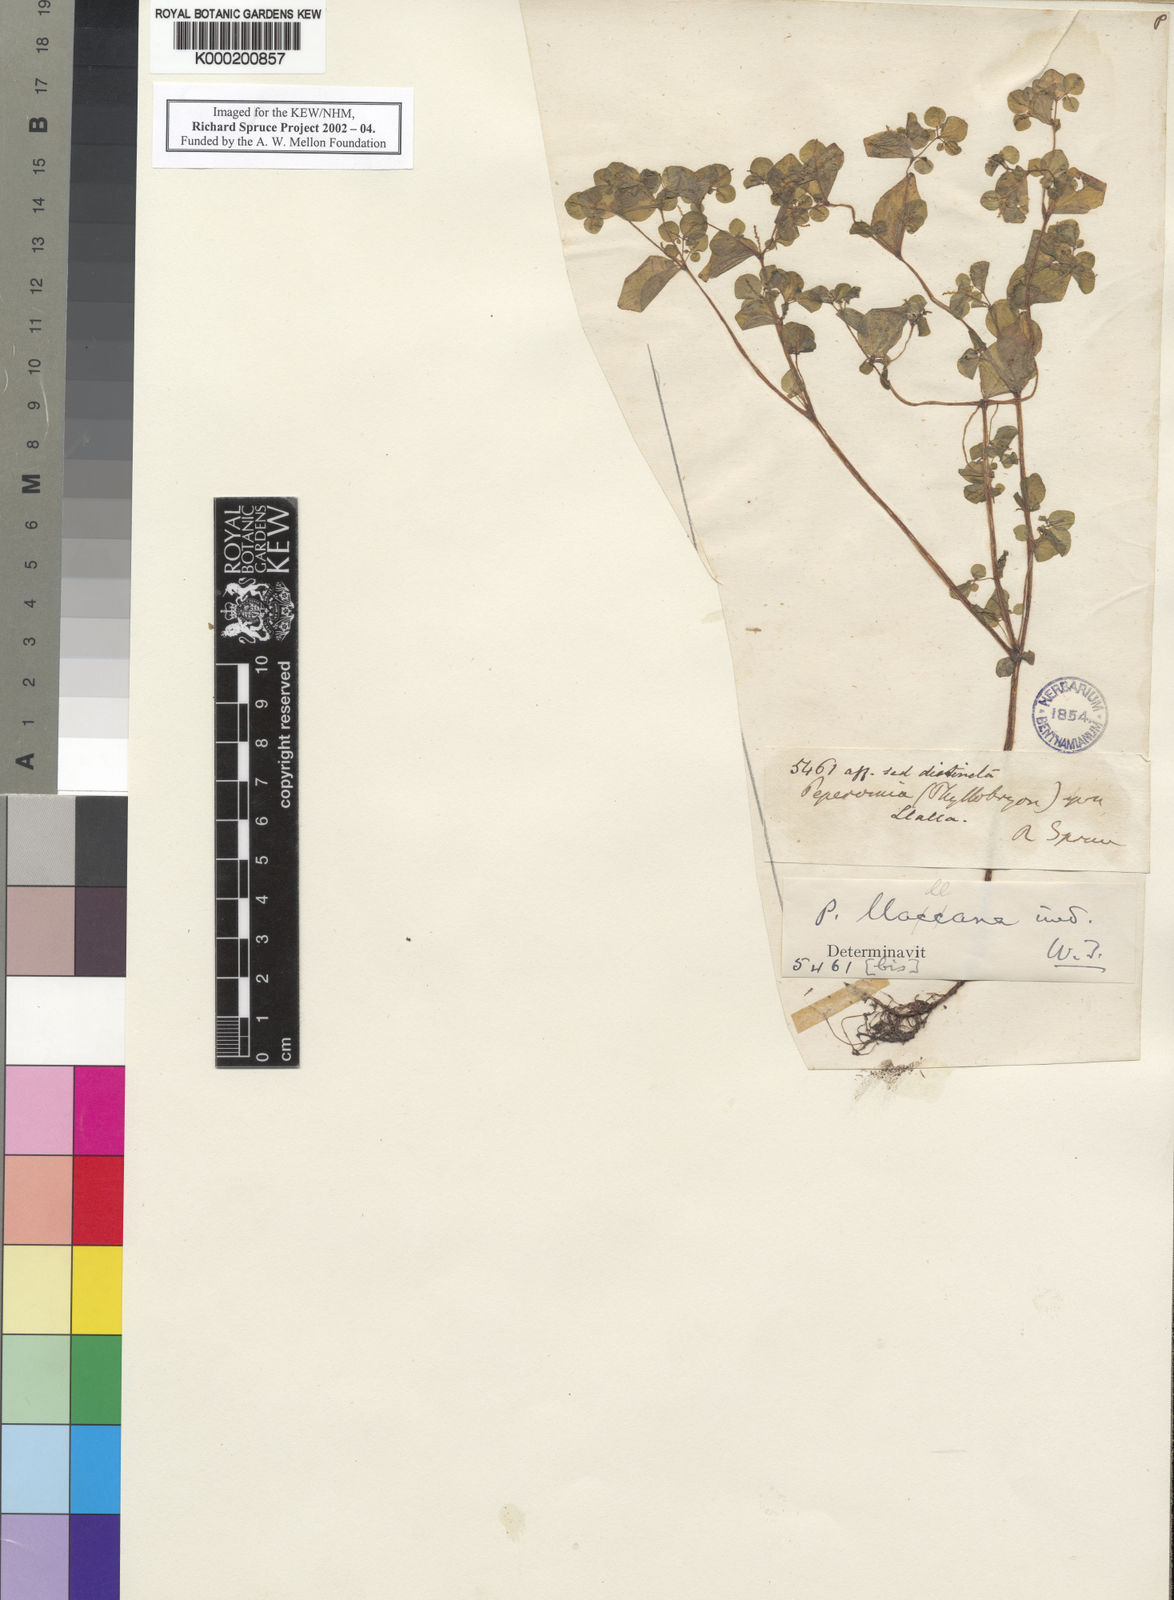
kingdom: Plantae
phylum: Tracheophyta
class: Magnoliopsida
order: Piperales
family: Piperaceae
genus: Peperomia
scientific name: Peperomia
